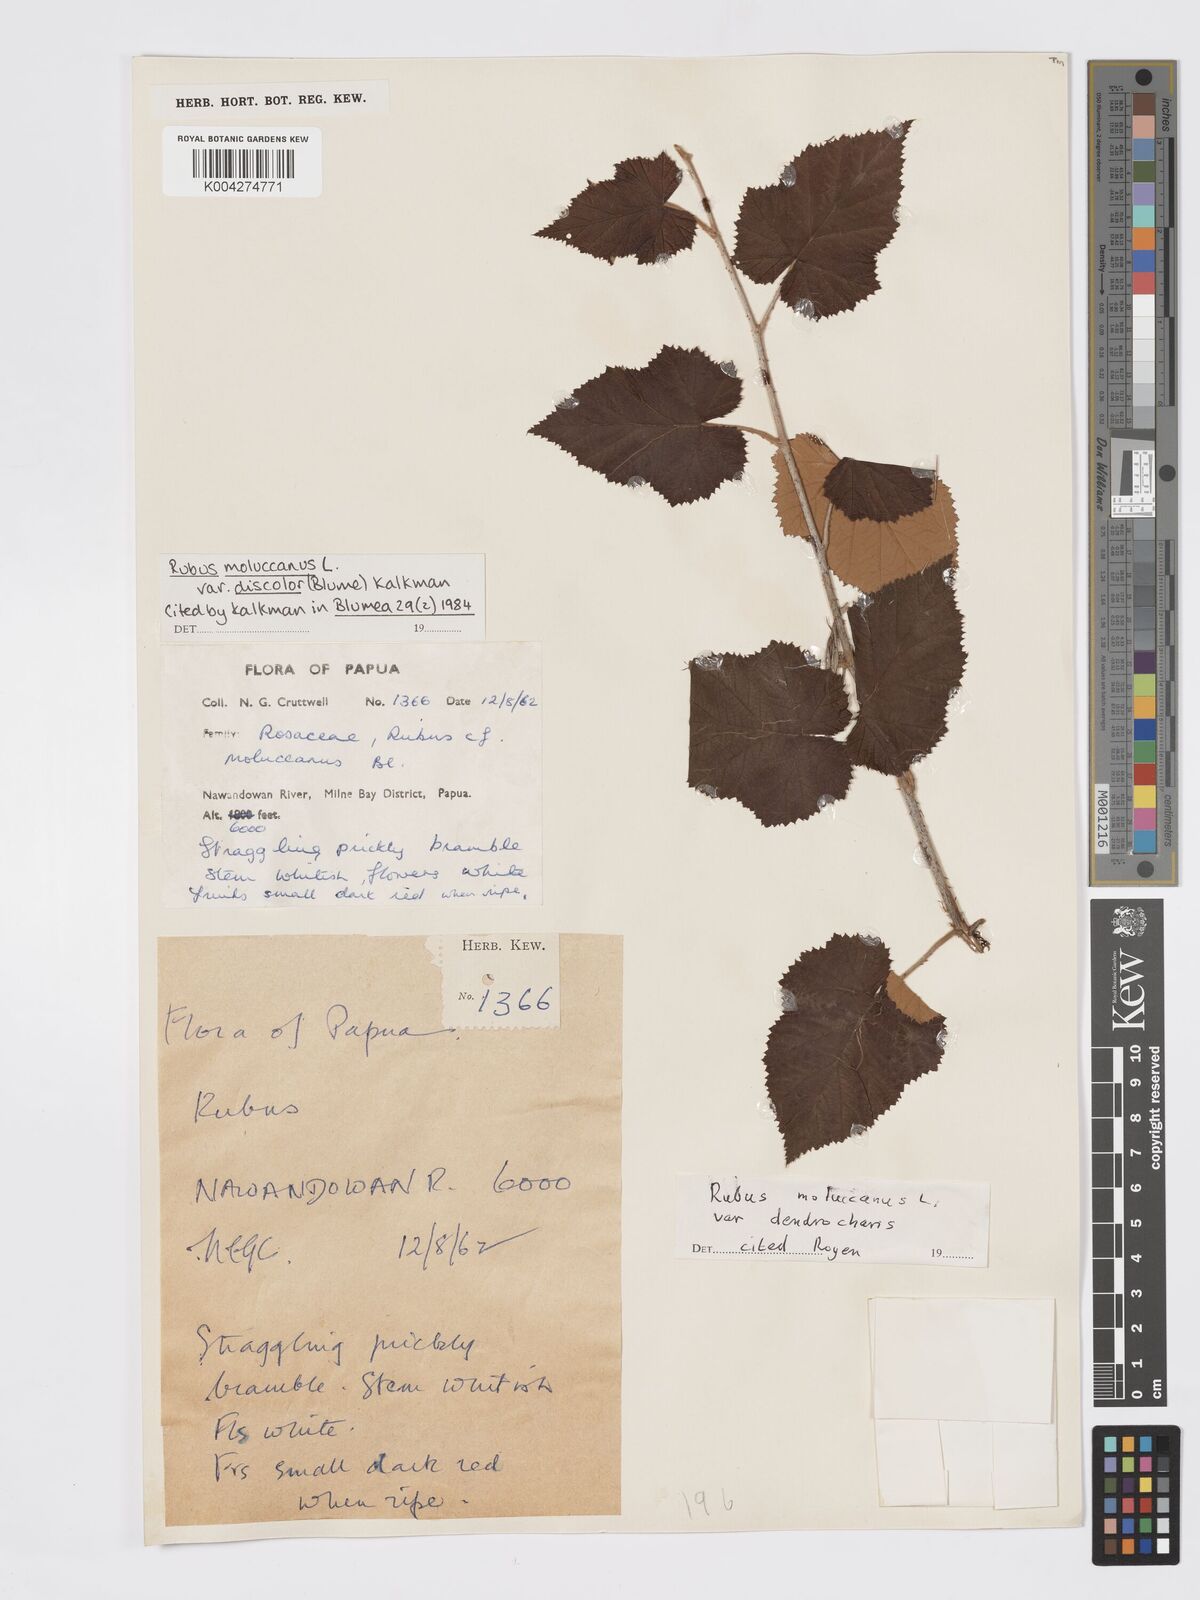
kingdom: Plantae
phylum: Tracheophyta
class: Magnoliopsida
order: Rosales
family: Rosaceae
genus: Rubus
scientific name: Rubus moluccanus
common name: Wild raspberry
